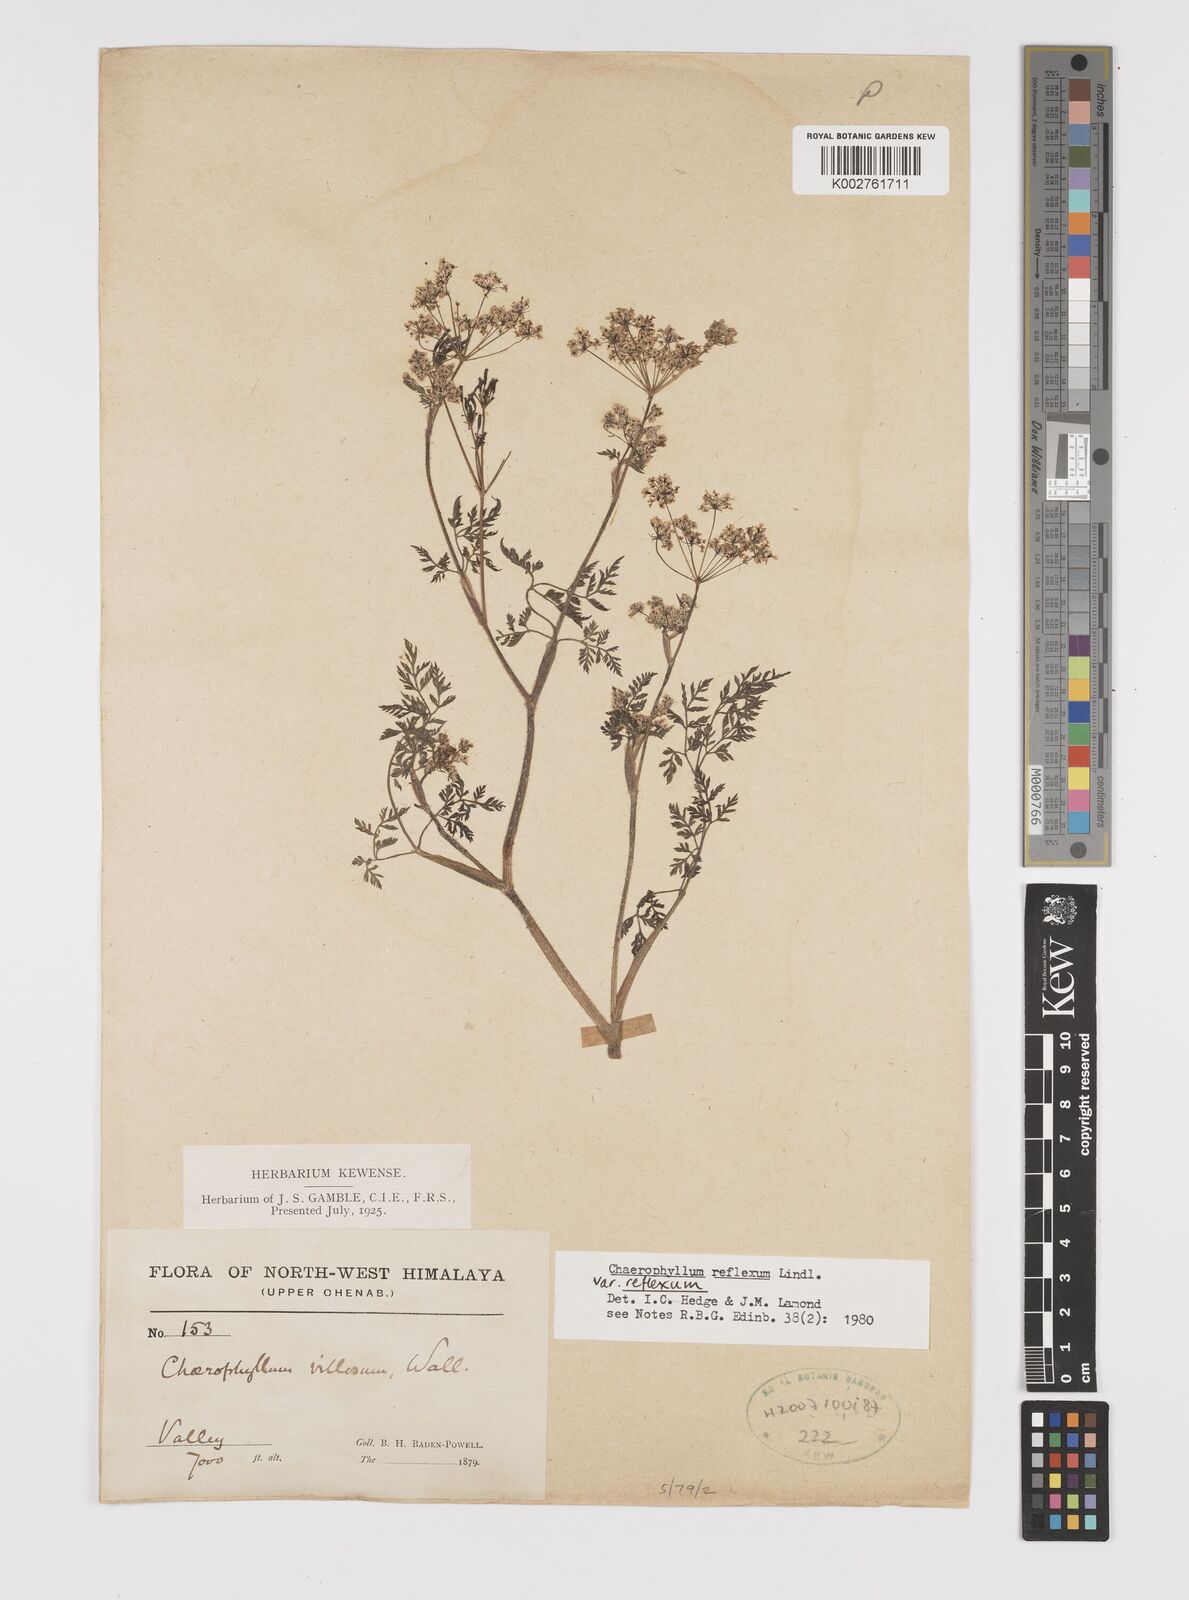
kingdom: Plantae
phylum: Tracheophyta
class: Magnoliopsida
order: Apiales
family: Apiaceae
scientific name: Apiaceae
